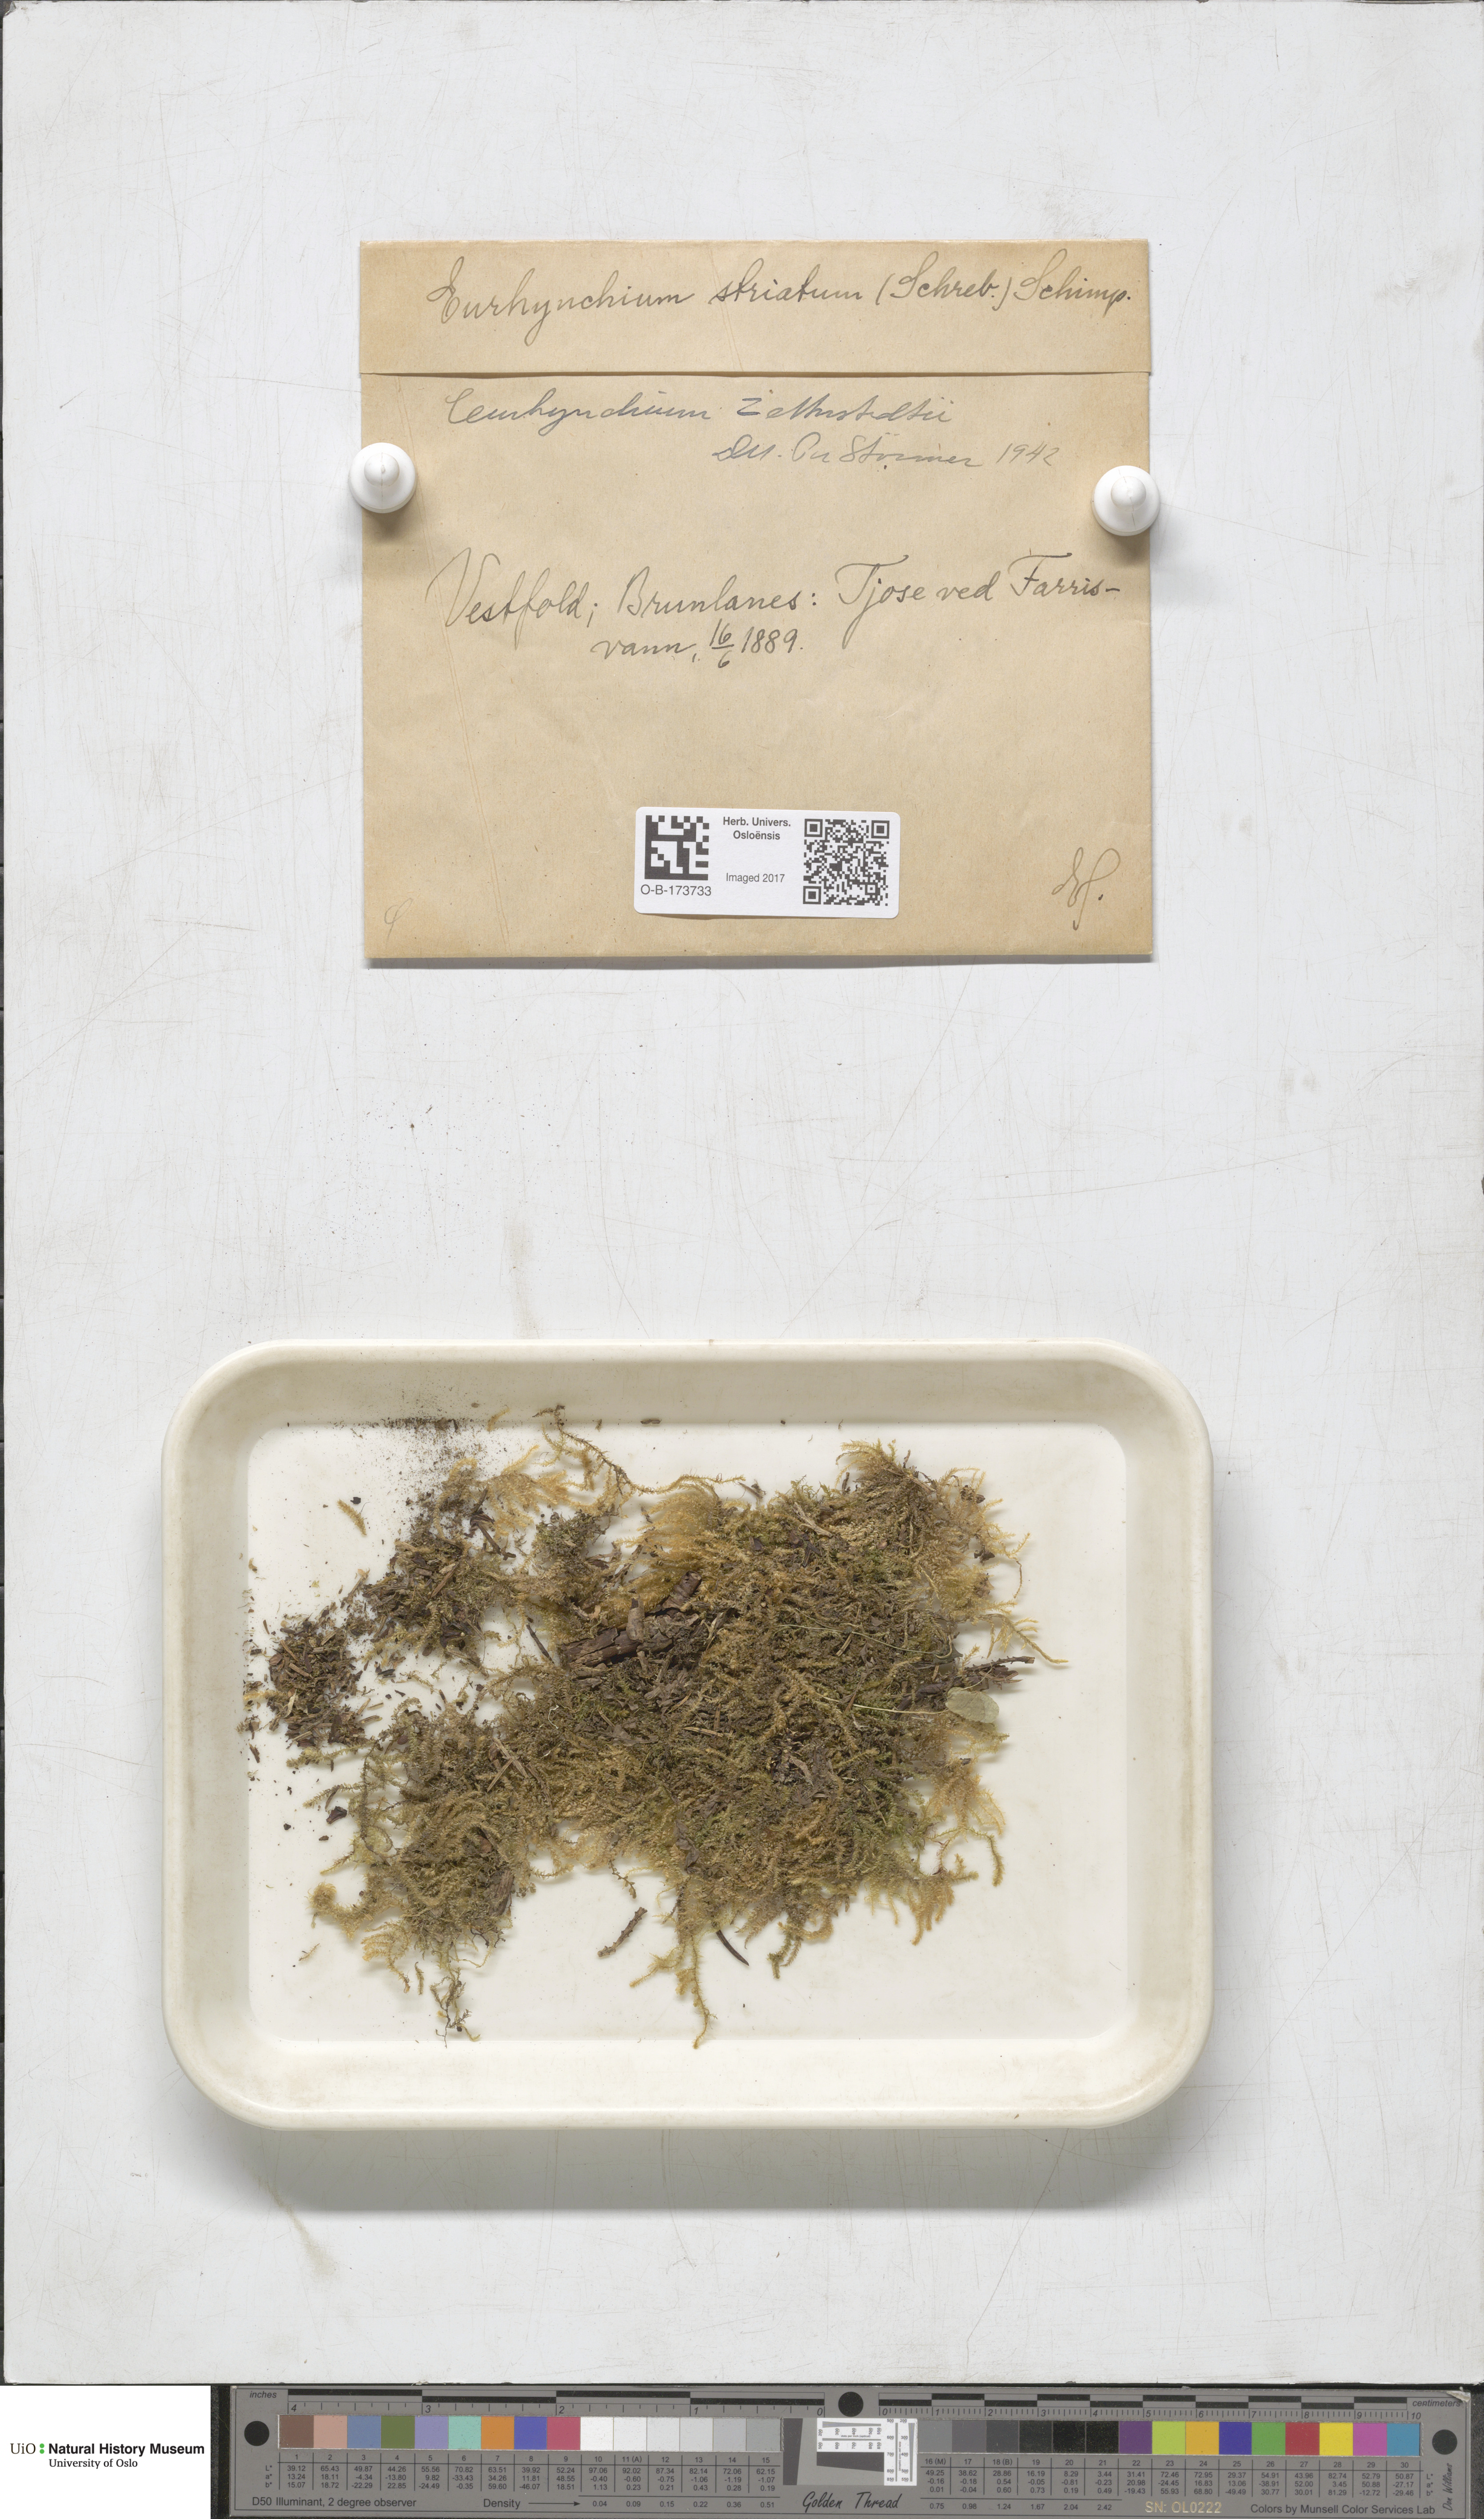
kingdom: Plantae
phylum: Bryophyta
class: Bryopsida
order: Hypnales
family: Brachytheciaceae
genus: Eurhynchium
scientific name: Eurhynchium angustirete
